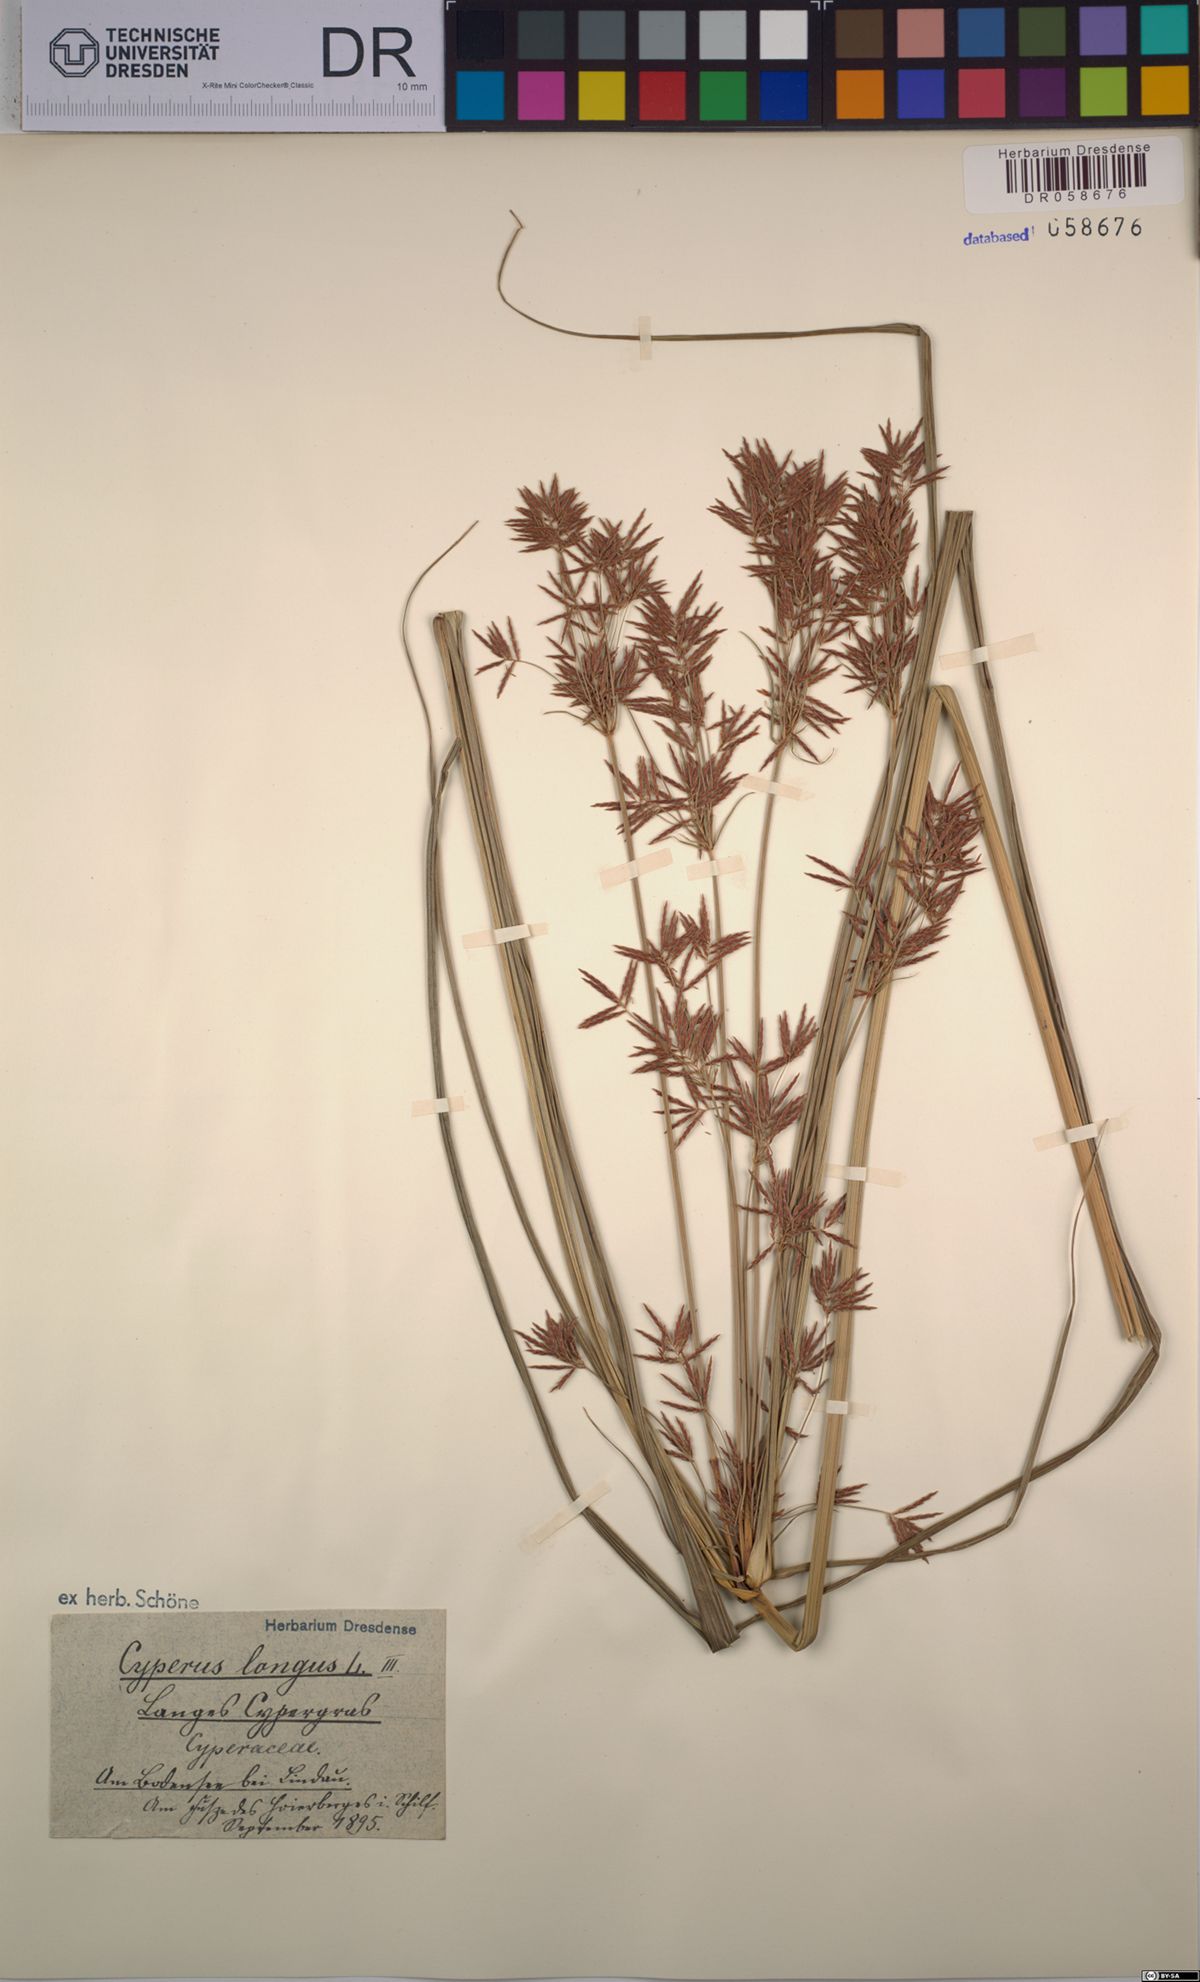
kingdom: Plantae
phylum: Tracheophyta
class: Liliopsida
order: Poales
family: Cyperaceae
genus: Cyperus
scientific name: Cyperus longus
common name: Galingale
